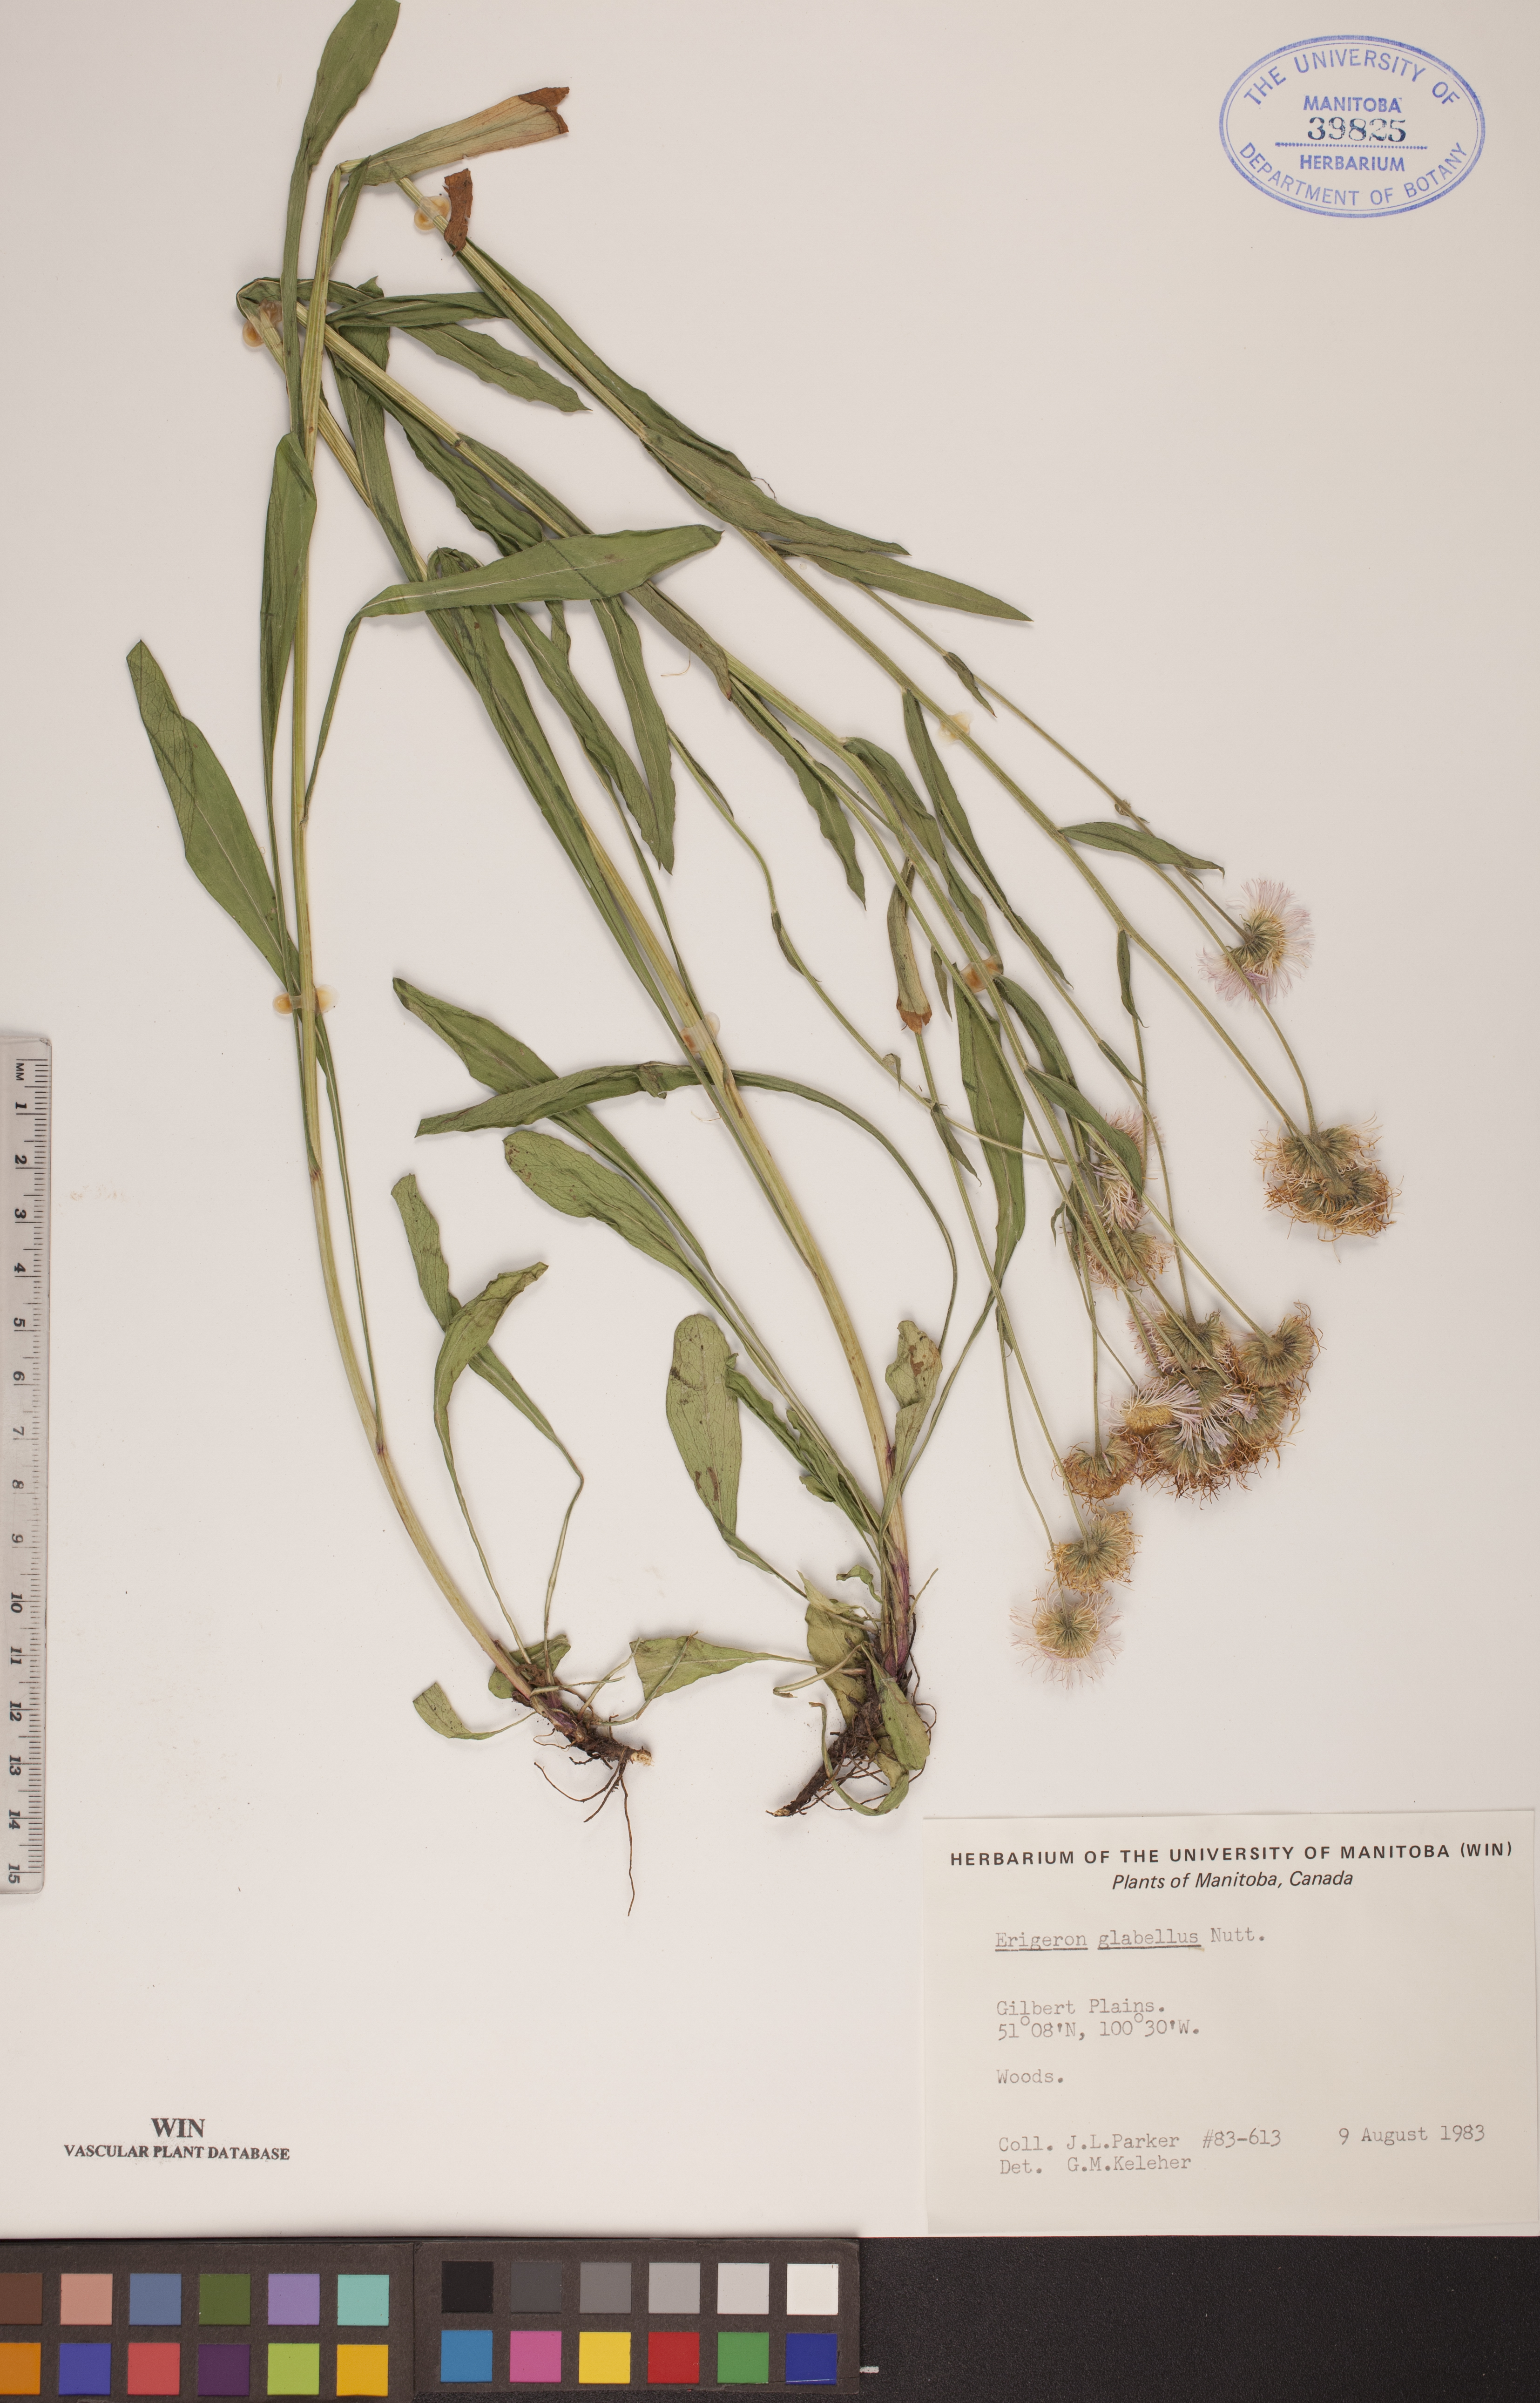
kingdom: Plantae
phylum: Tracheophyta
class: Magnoliopsida
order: Asterales
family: Asteraceae
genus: Erigeron
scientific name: Erigeron glabellus
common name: Smooth fleabane
